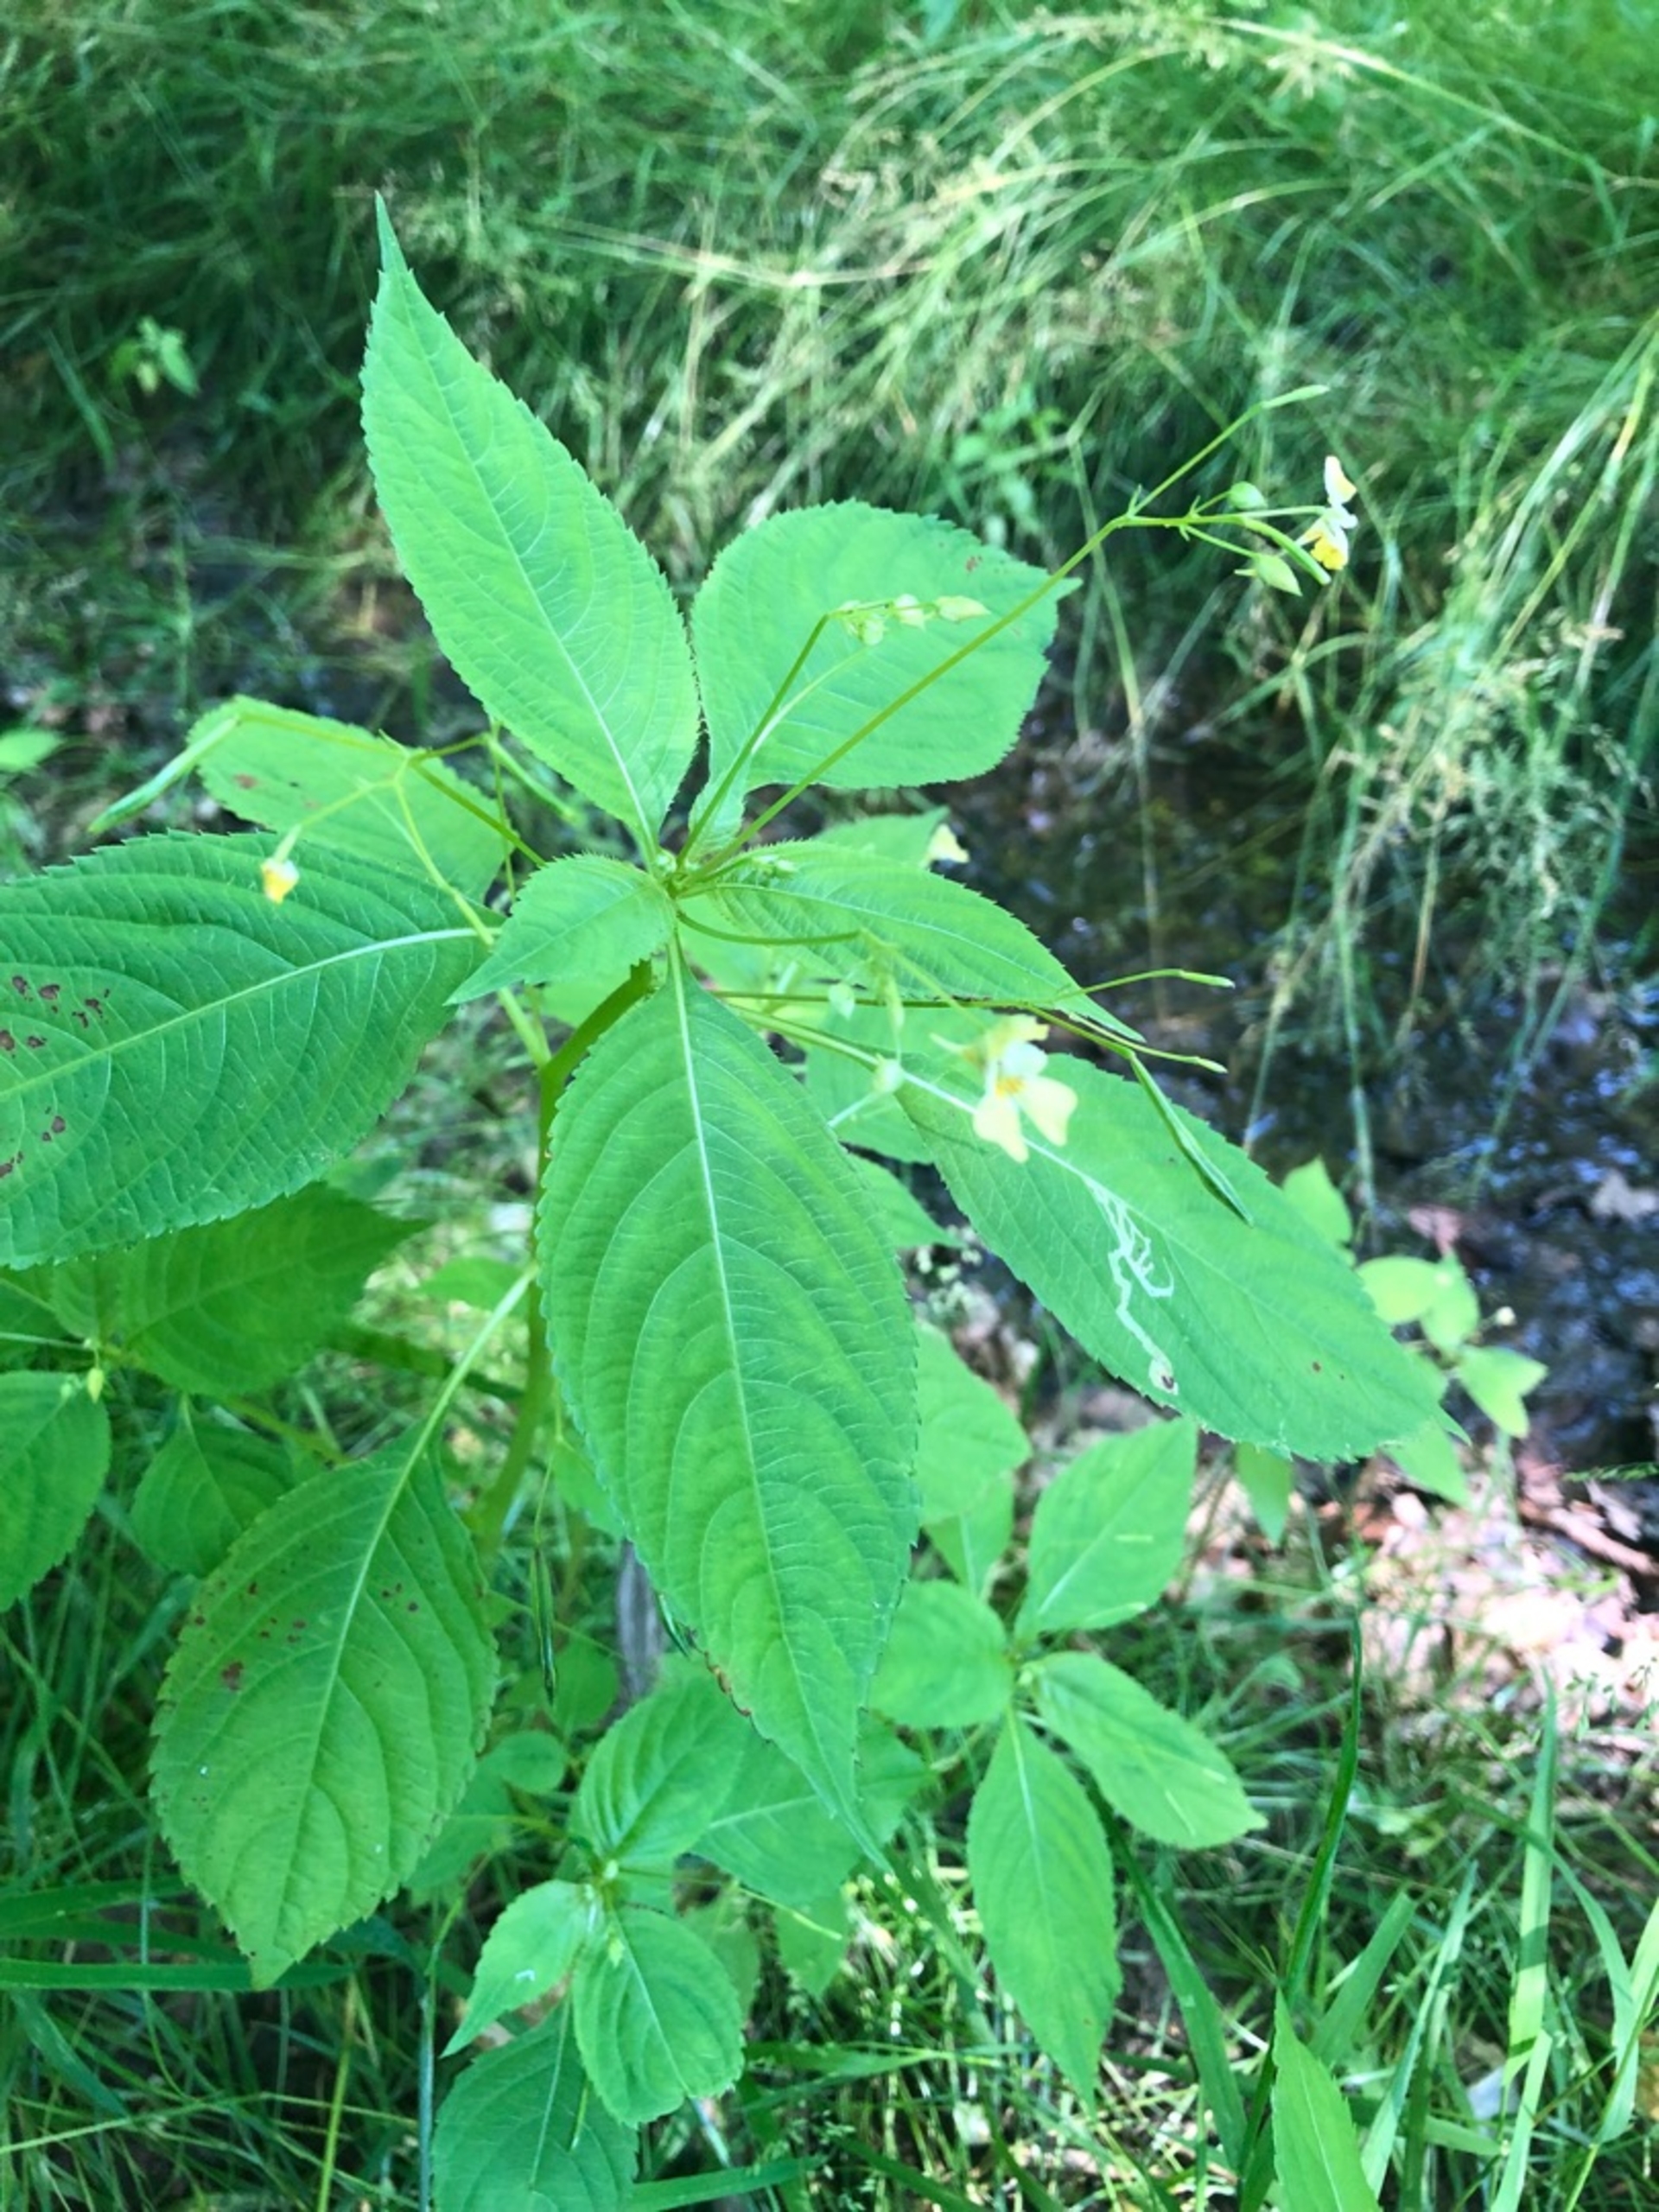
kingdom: Plantae
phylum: Tracheophyta
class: Magnoliopsida
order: Ericales
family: Balsaminaceae
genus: Impatiens
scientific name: Impatiens parviflora
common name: Småblomstret balsamin
